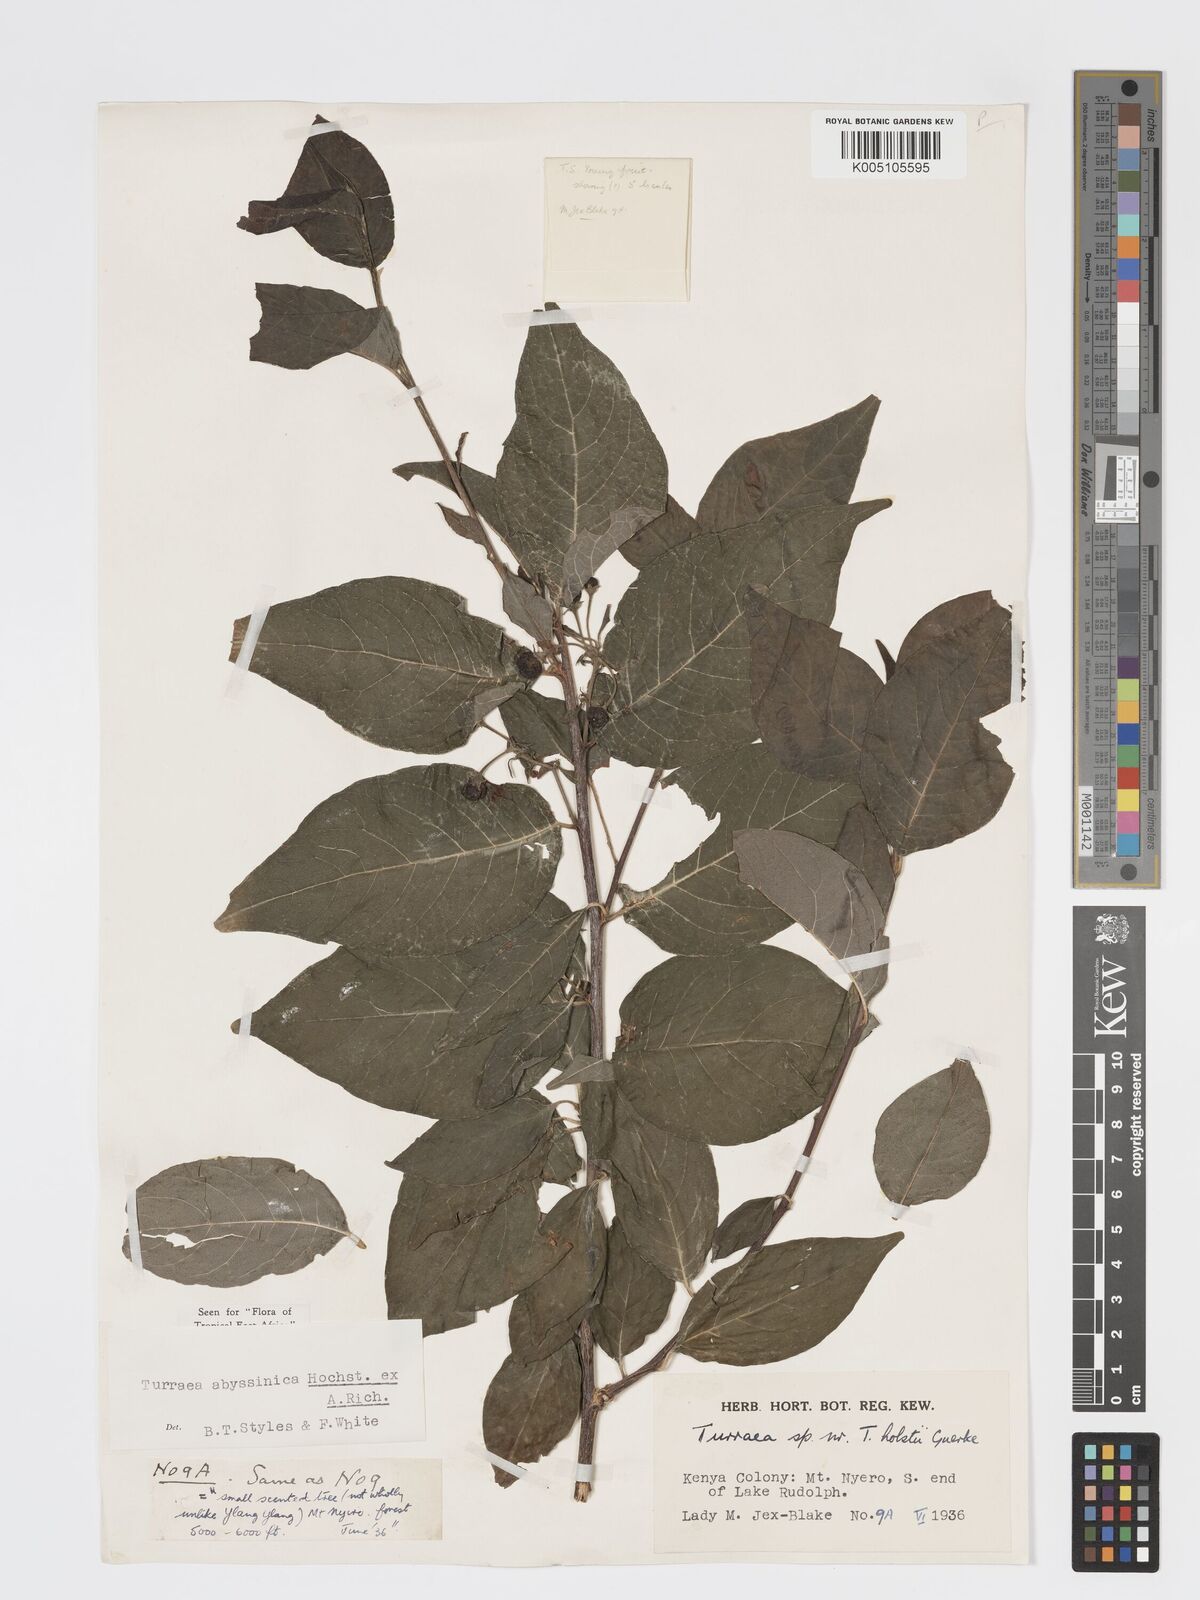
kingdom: Plantae
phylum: Tracheophyta
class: Magnoliopsida
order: Sapindales
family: Meliaceae
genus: Turraea
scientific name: Turraea abyssinica
